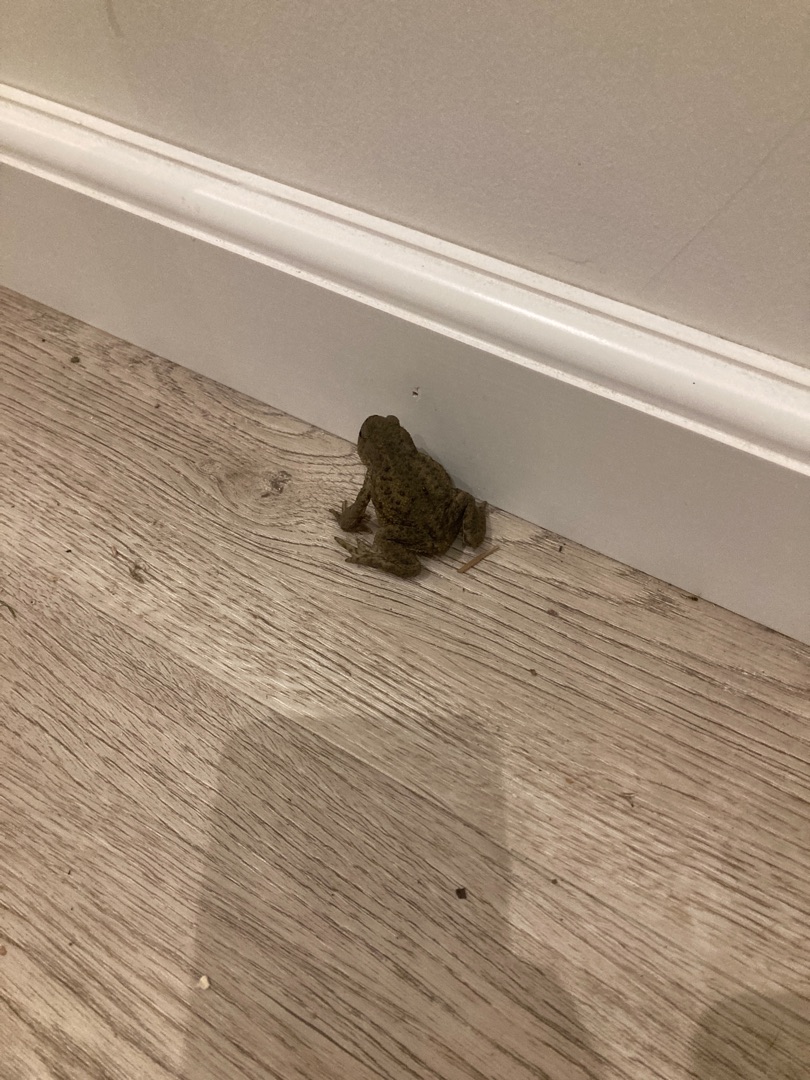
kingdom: Animalia
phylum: Chordata
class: Amphibia
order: Anura
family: Bufonidae
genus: Bufo
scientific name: Bufo bufo
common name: Skrubtudse
